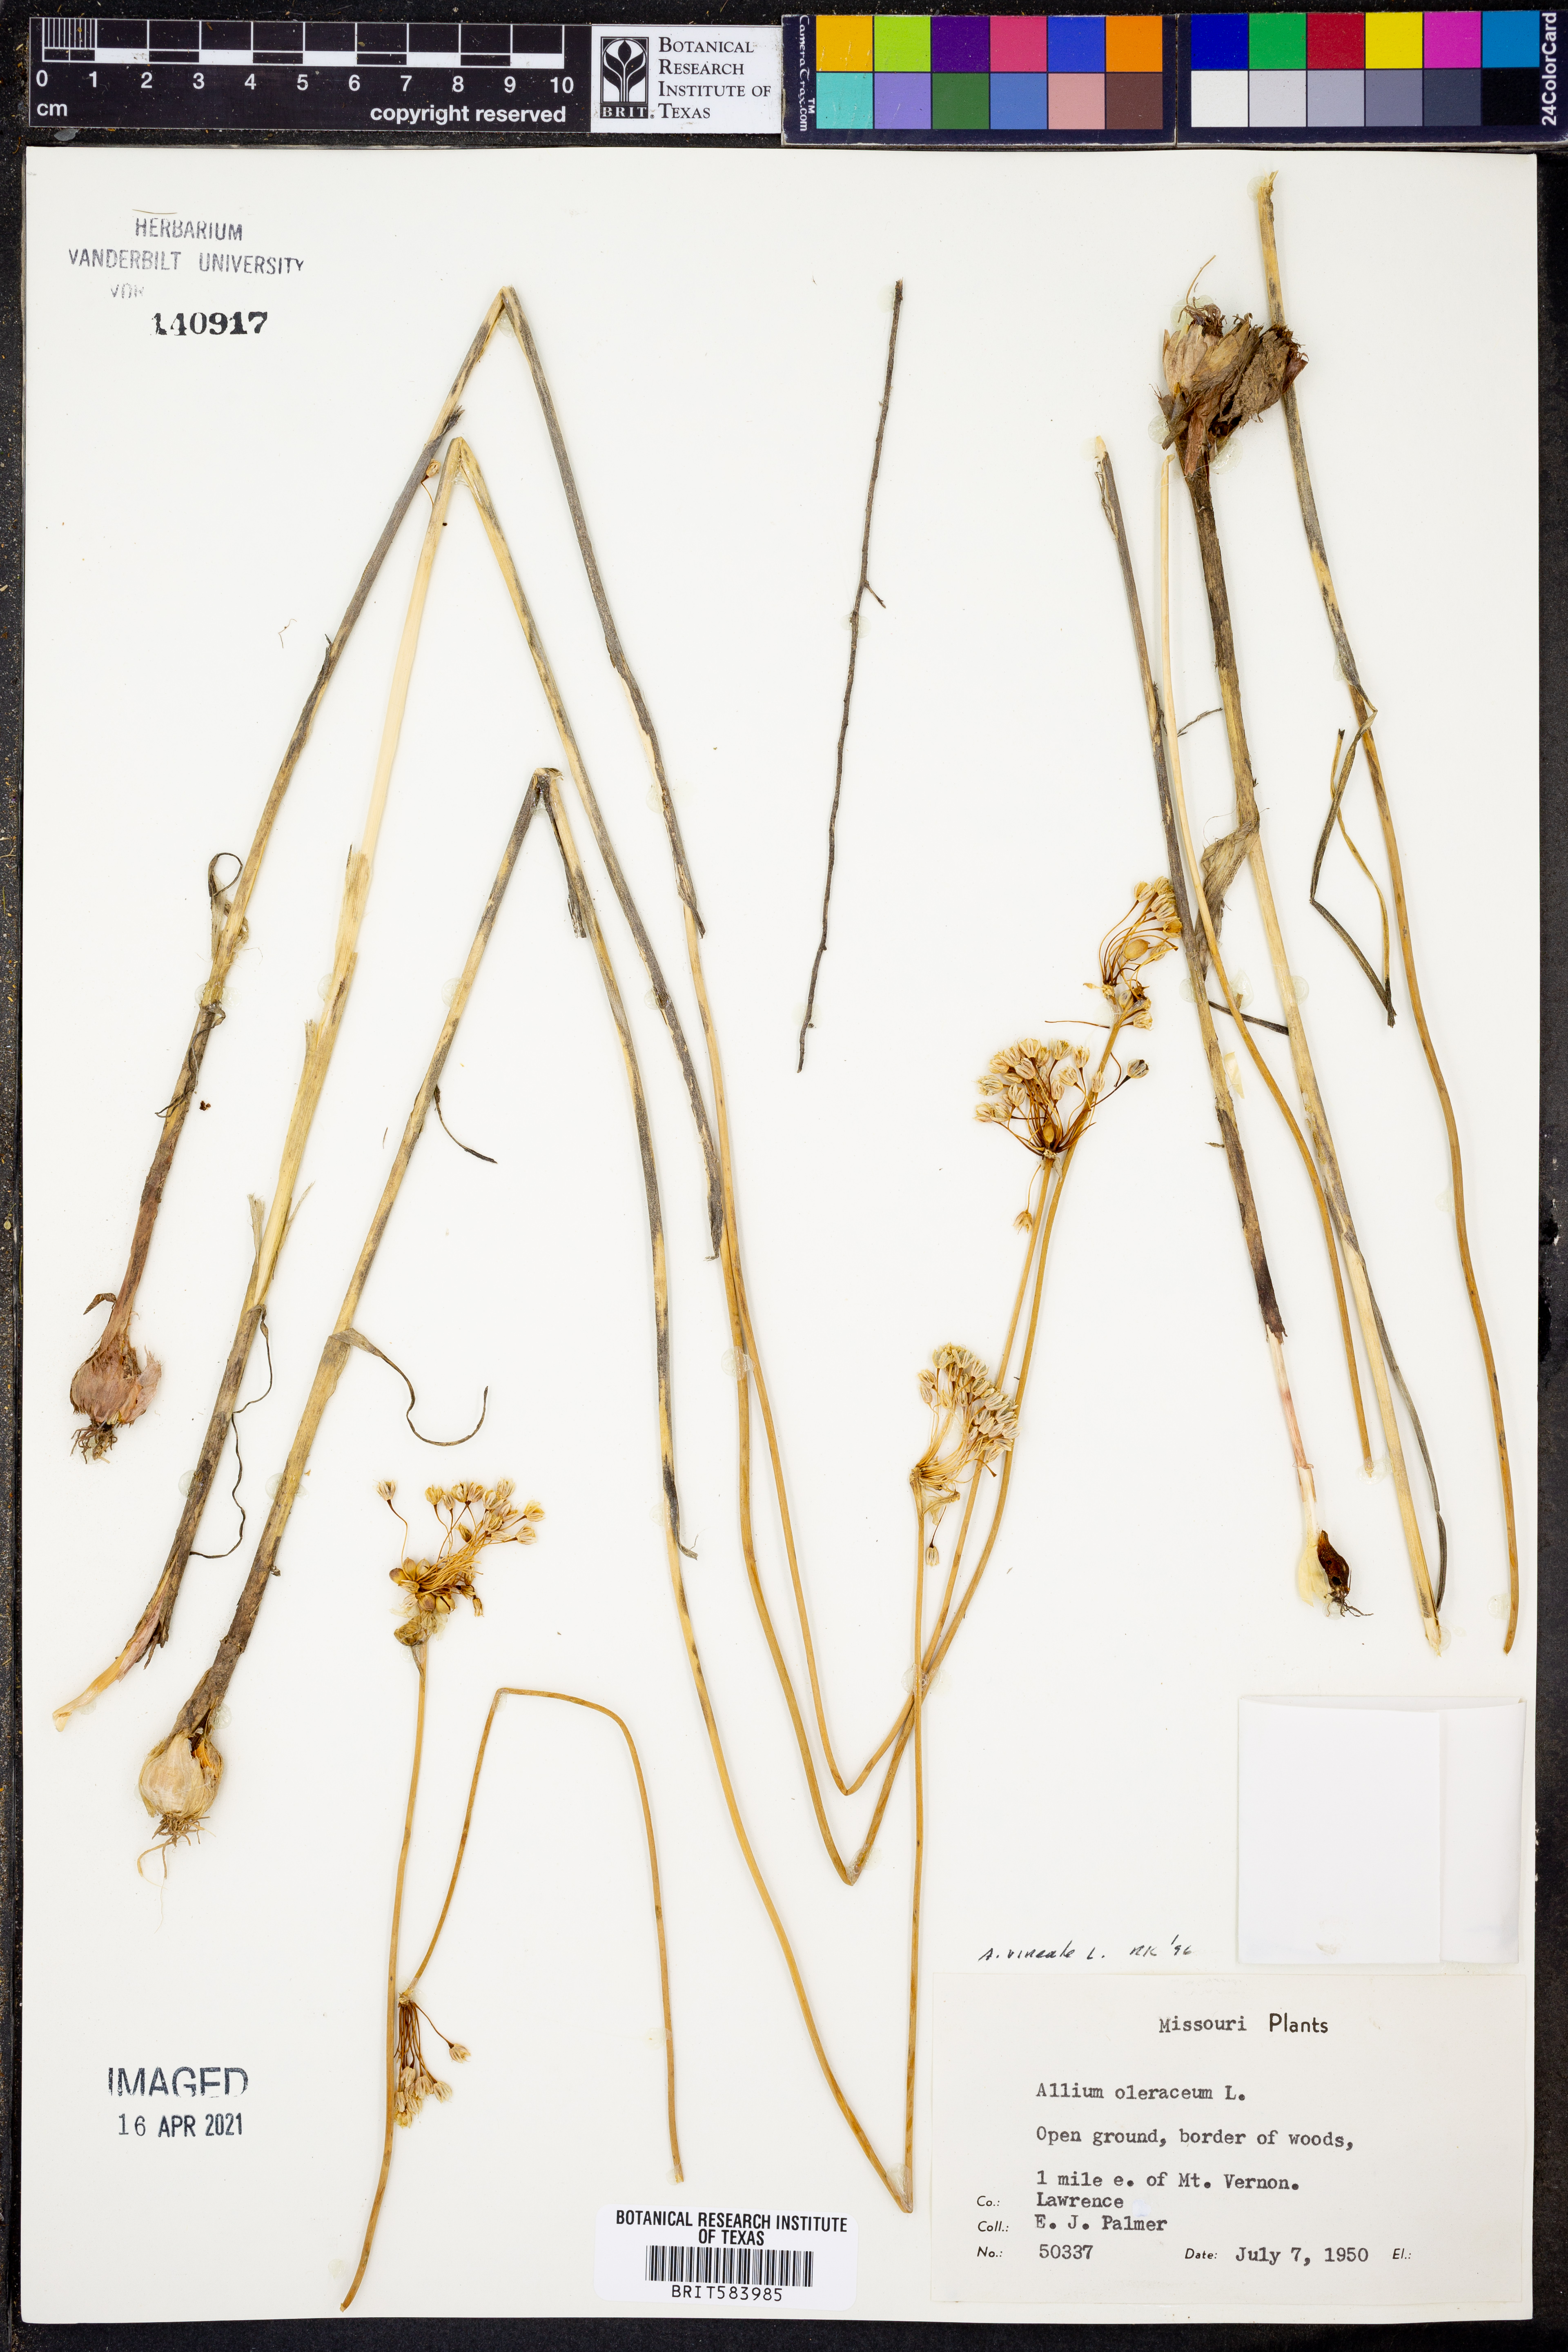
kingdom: Plantae
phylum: Tracheophyta
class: Liliopsida
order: Asparagales
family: Amaryllidaceae
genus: Allium
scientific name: Allium vineale
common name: Crow garlic
